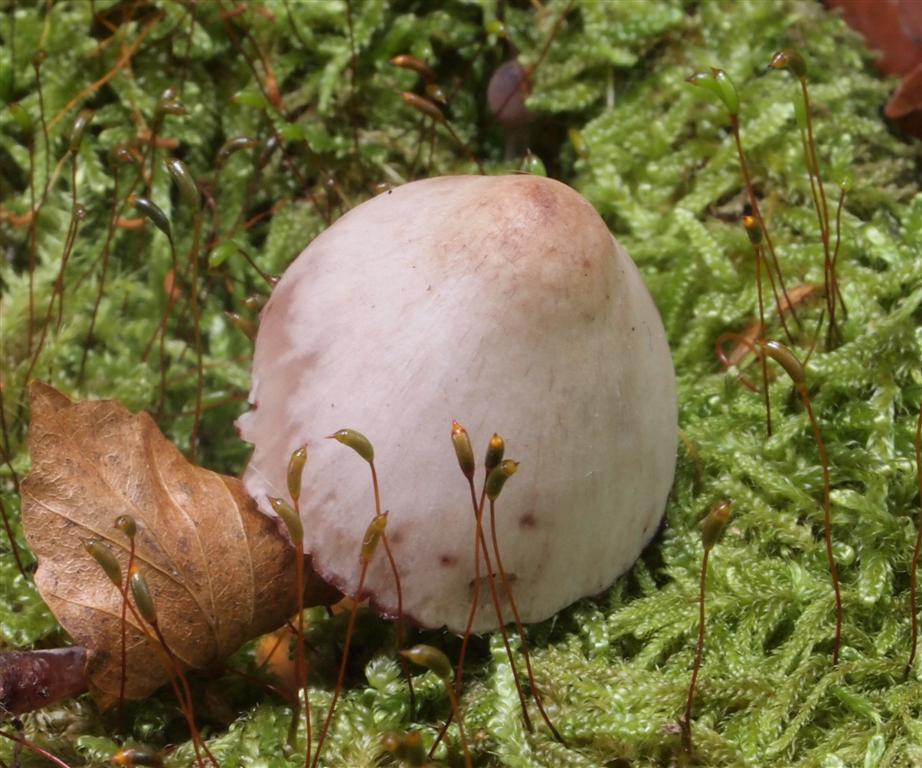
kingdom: Fungi
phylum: Basidiomycota
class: Agaricomycetes
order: Agaricales
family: Mycenaceae
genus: Mycena
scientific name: Mycena sanguinolenta
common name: rødmælket huesvamp
